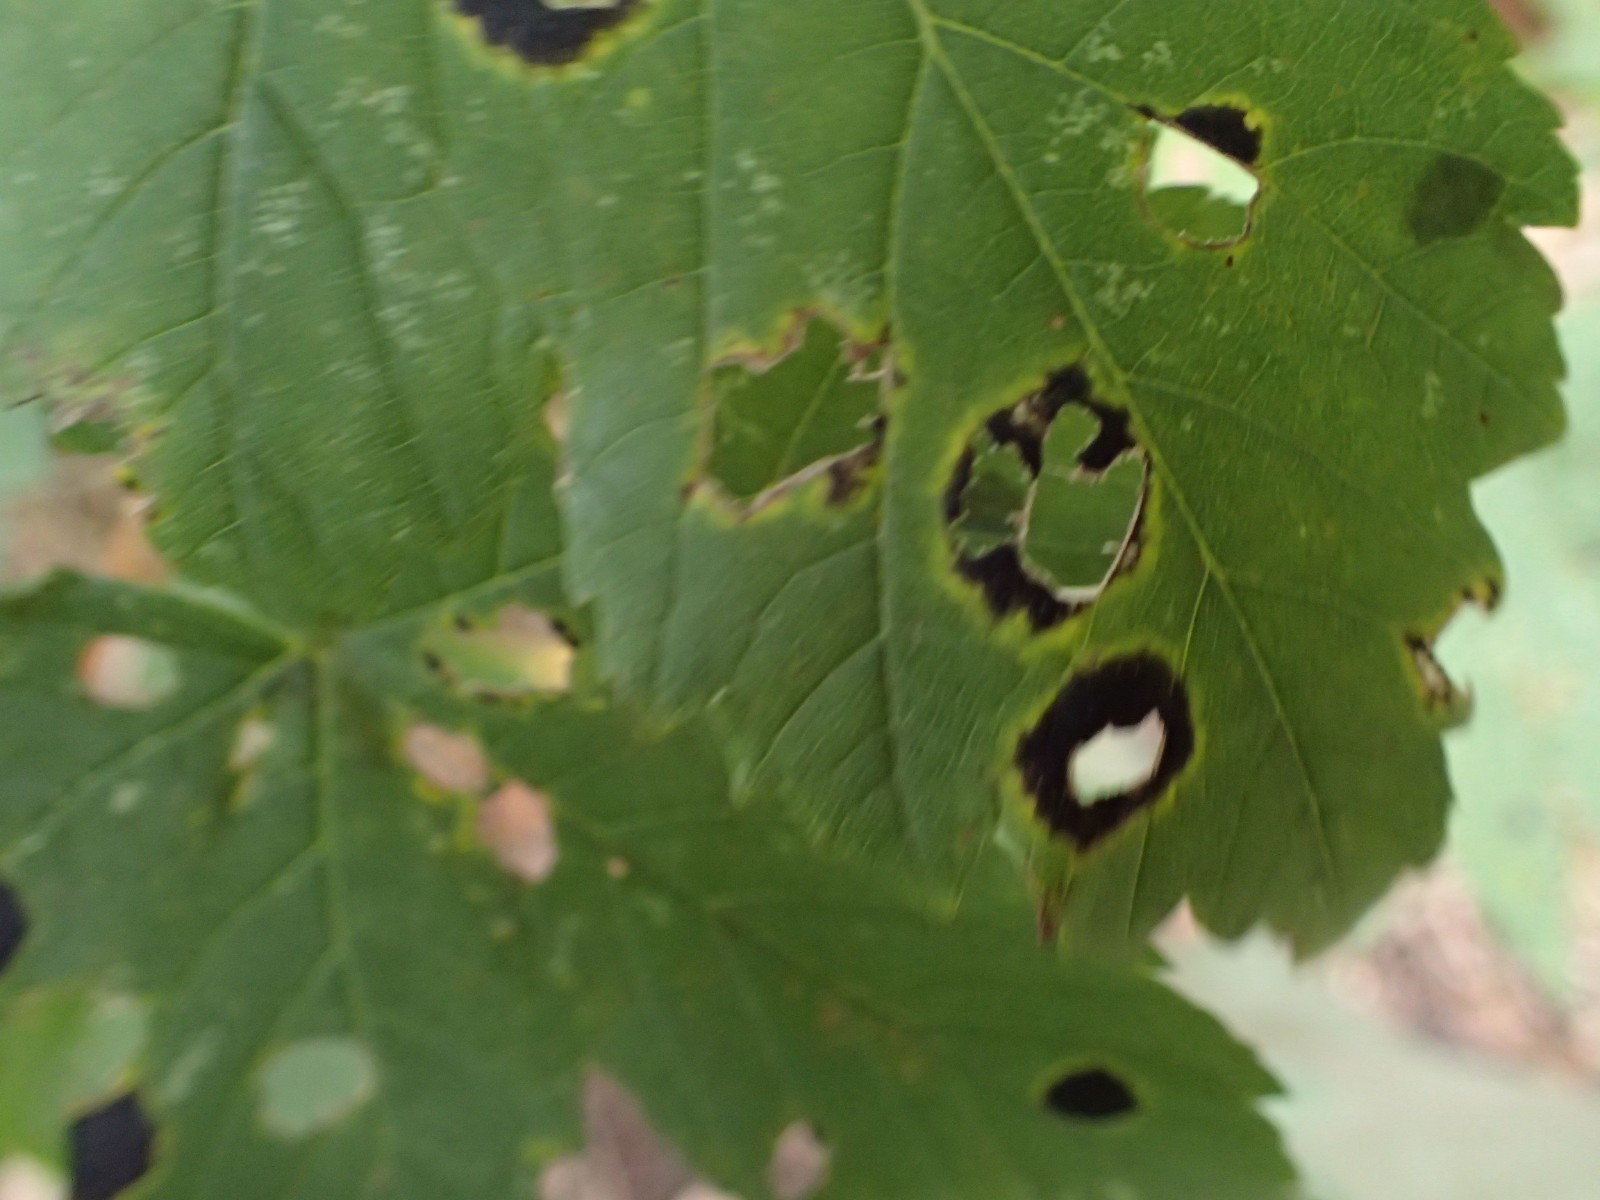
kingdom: Fungi
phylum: Ascomycota
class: Leotiomycetes
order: Rhytismatales
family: Rhytismataceae
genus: Rhytisma
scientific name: Rhytisma acerinum
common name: ahorn-rynkeplet
